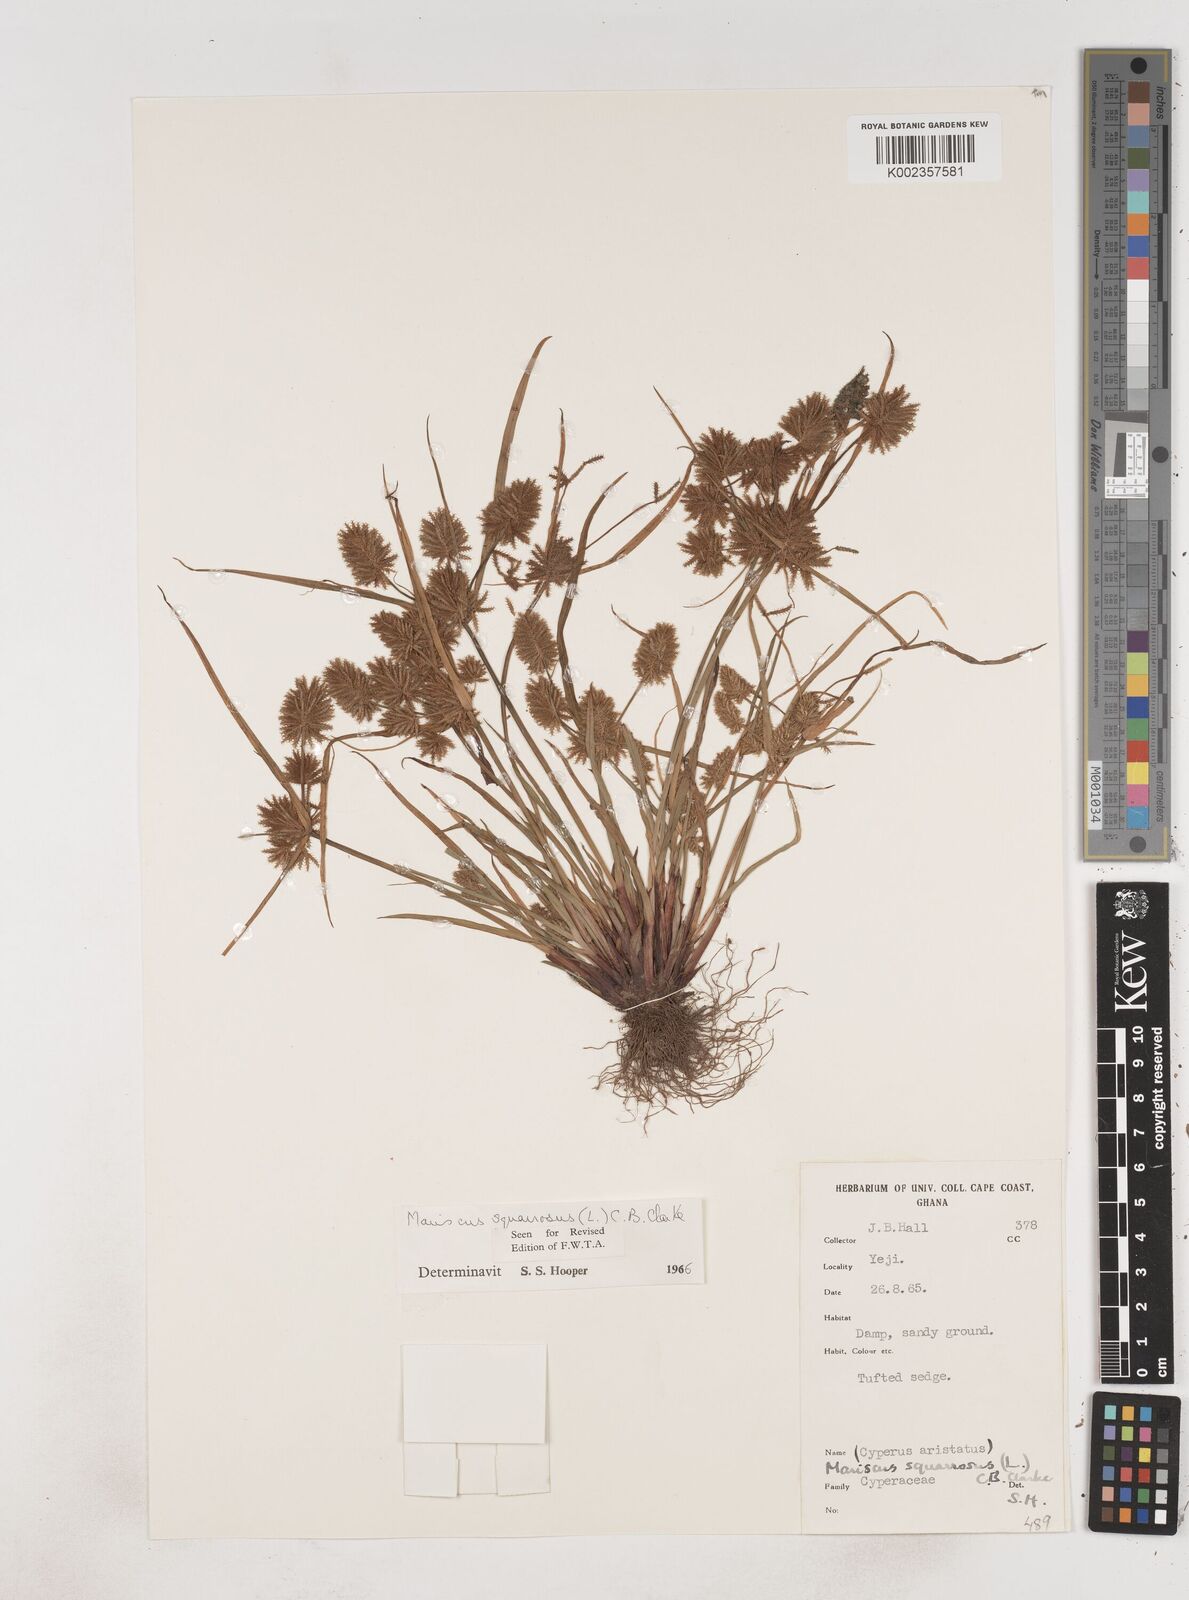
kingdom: Plantae
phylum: Tracheophyta
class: Liliopsida
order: Poales
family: Cyperaceae
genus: Cyperus
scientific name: Cyperus squarrosus
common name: Awned cyperus
